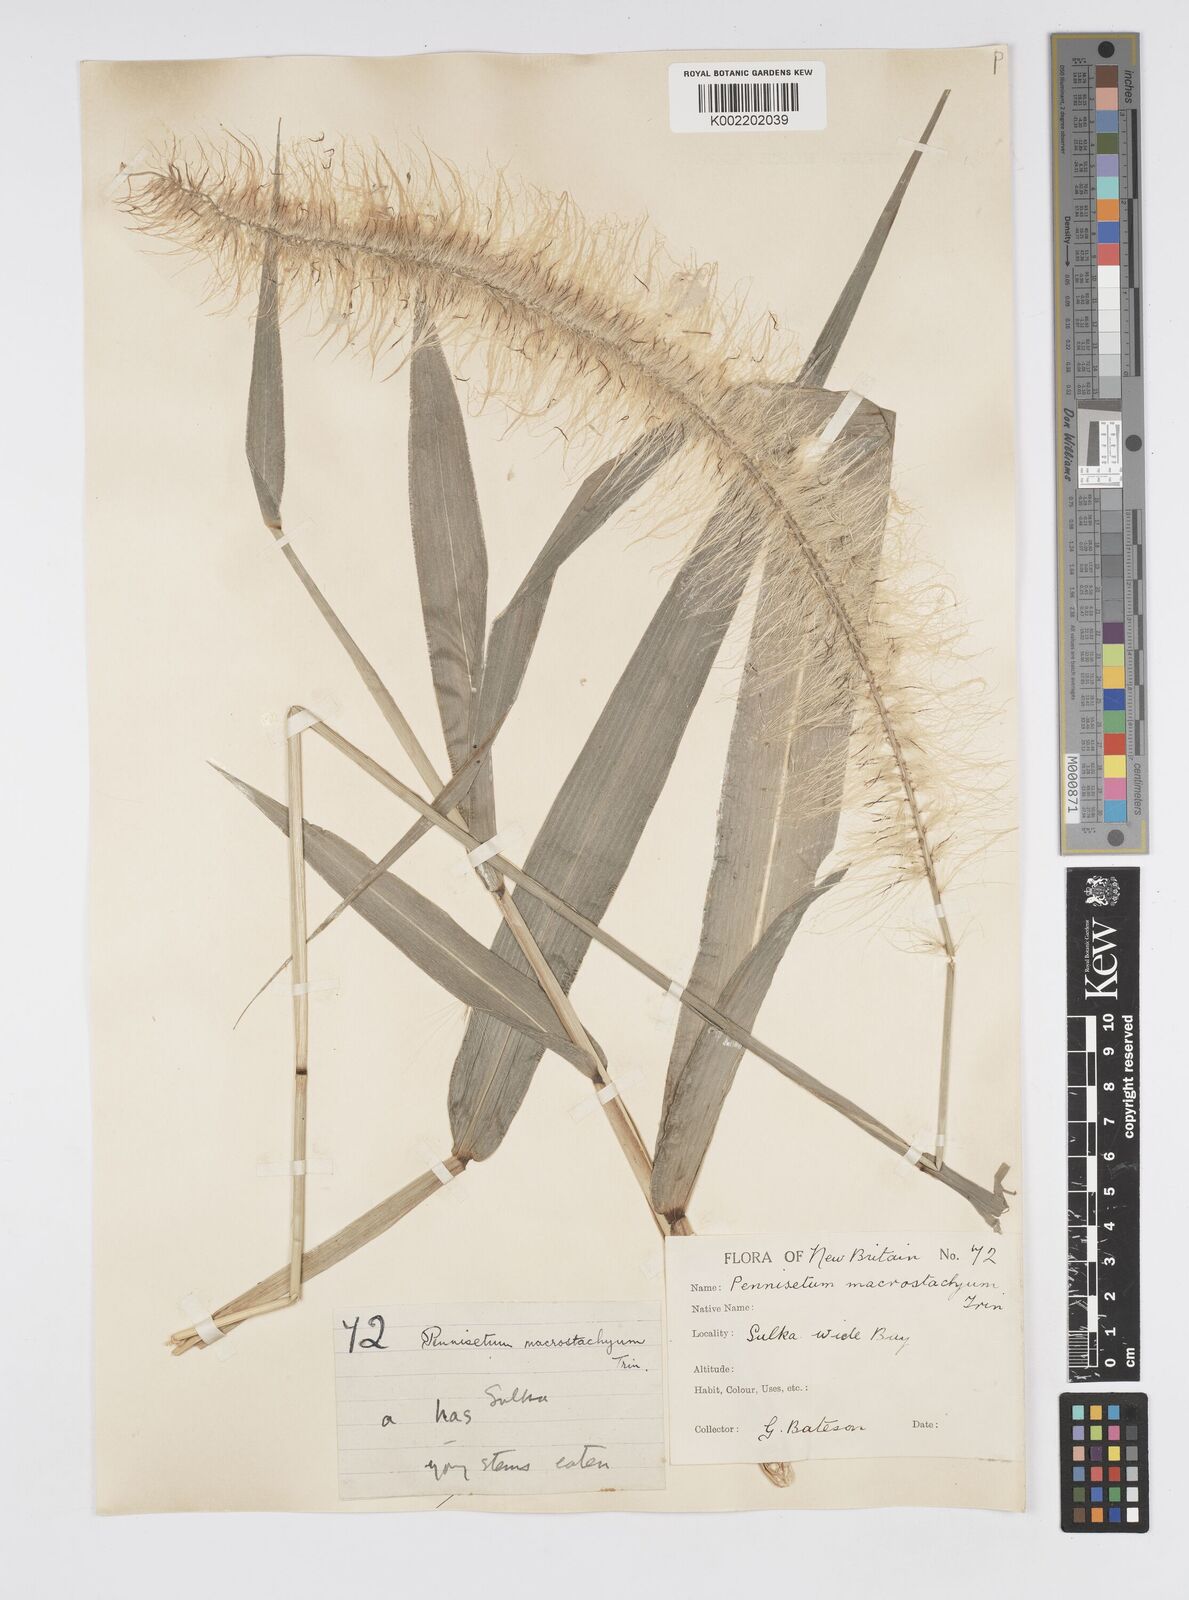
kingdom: Plantae
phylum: Tracheophyta
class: Liliopsida
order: Poales
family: Poaceae
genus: Cenchrus
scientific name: Cenchrus purpureus
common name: Elephant grass
